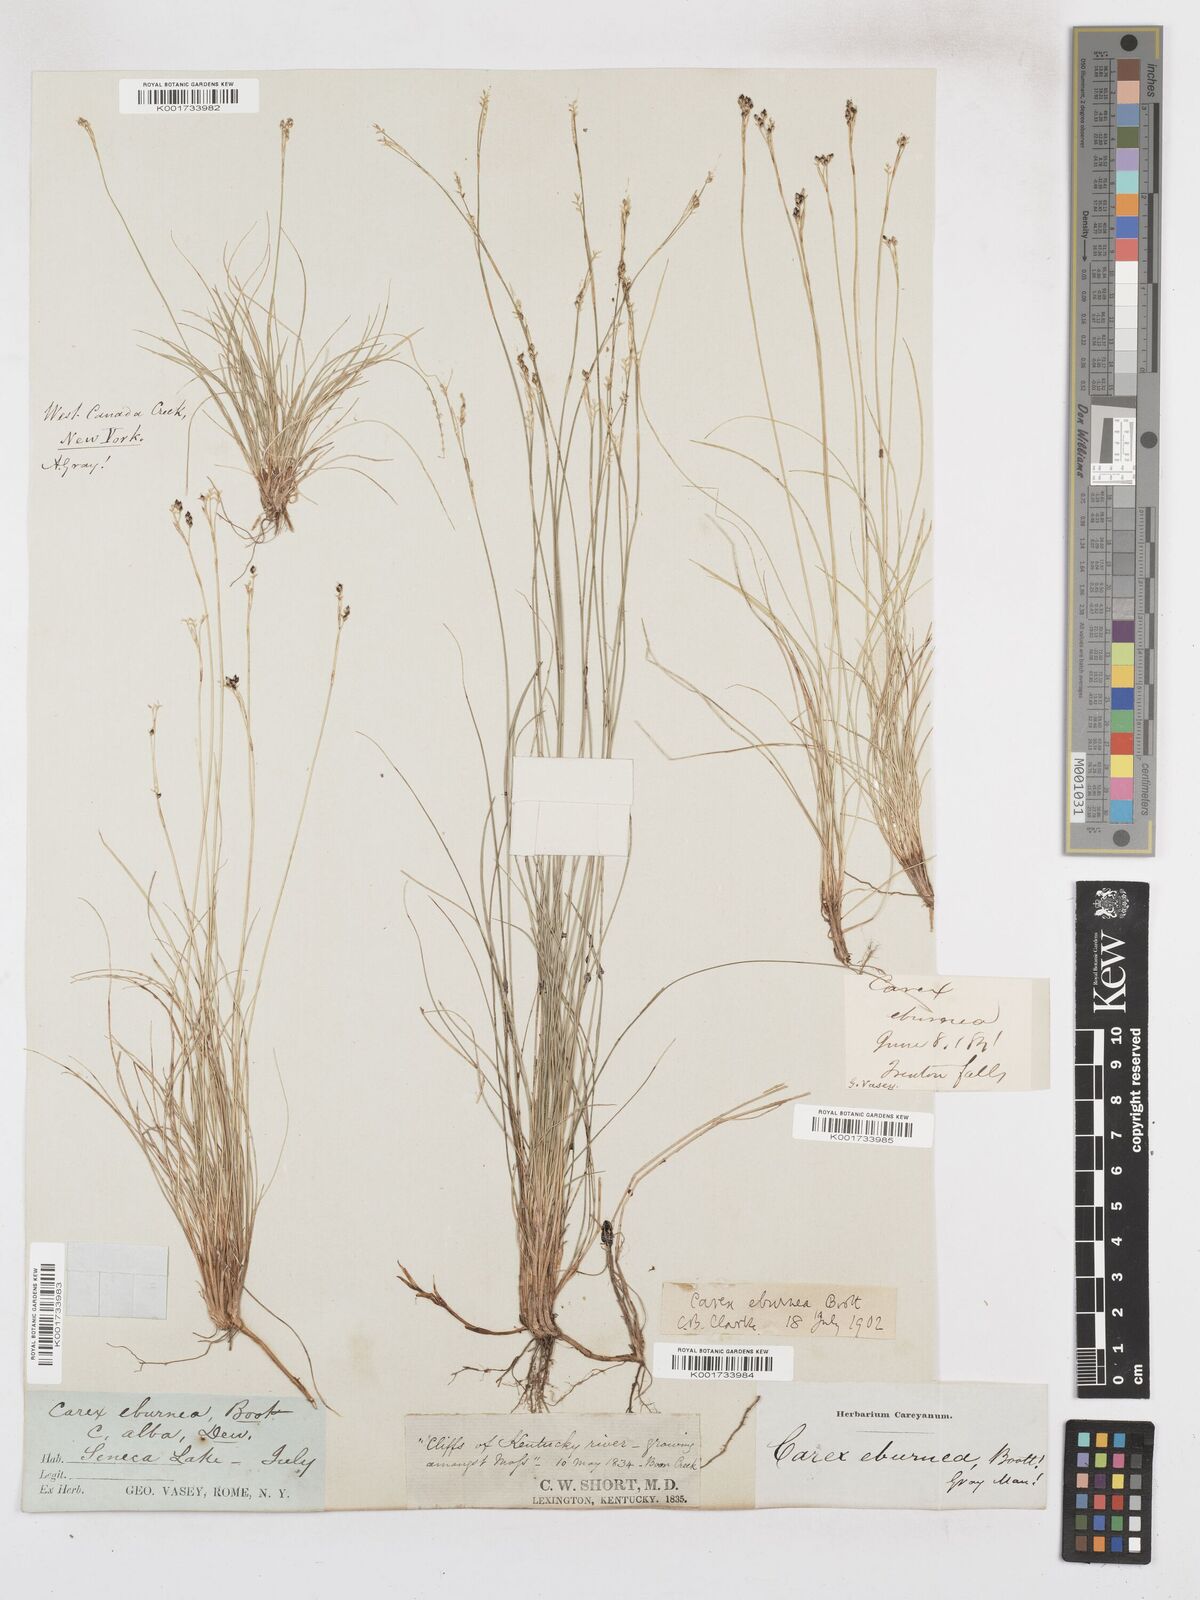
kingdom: Plantae
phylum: Tracheophyta
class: Liliopsida
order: Poales
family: Cyperaceae
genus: Carex
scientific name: Carex eburnea
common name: Bristle-leaved sedge
